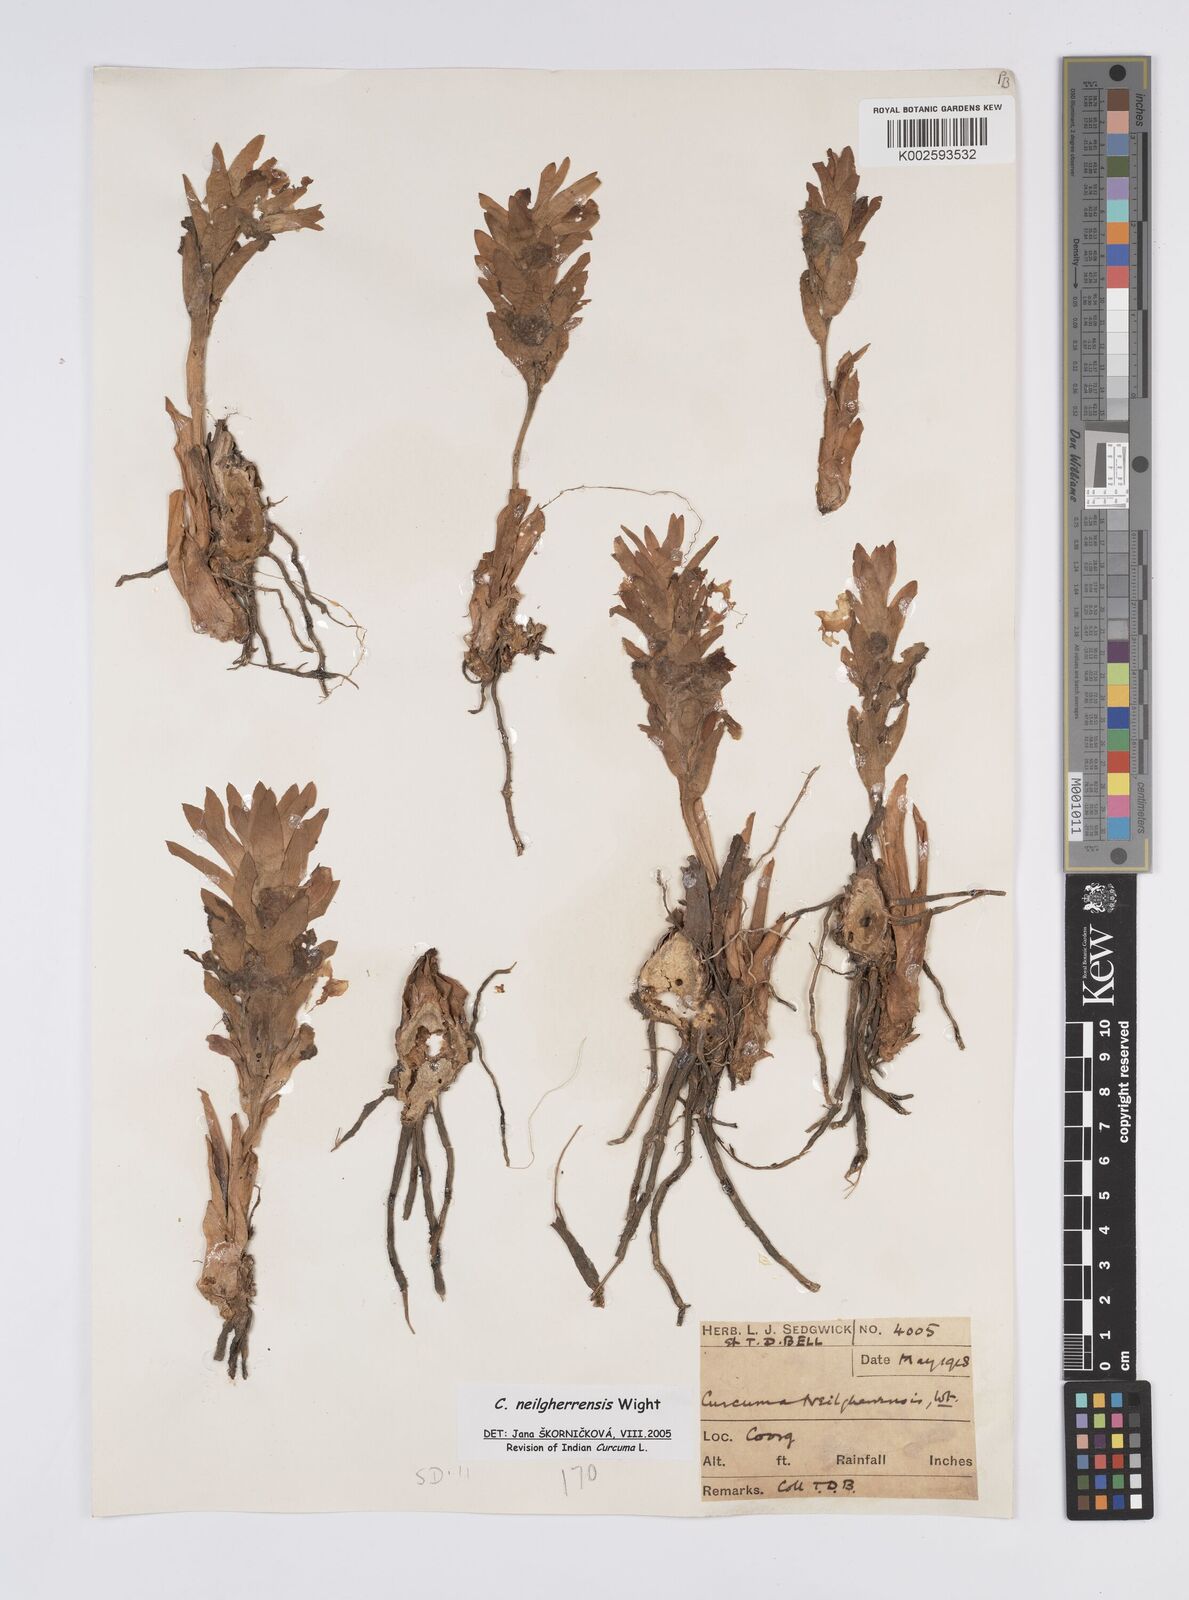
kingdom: Plantae
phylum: Tracheophyta
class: Liliopsida
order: Zingiberales
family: Zingiberaceae
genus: Curcuma
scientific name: Curcuma neilgherrensis
